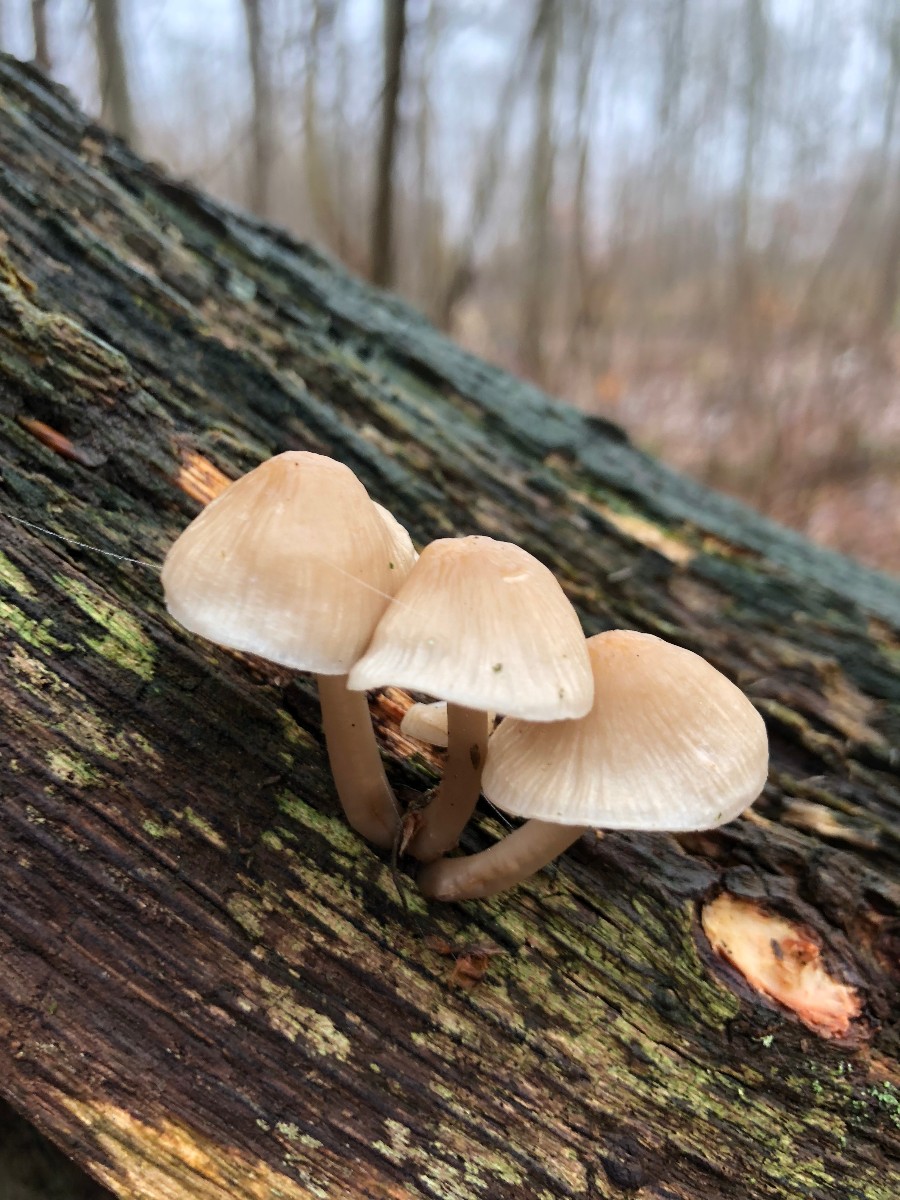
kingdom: Fungi
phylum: Basidiomycota
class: Agaricomycetes
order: Agaricales
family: Mycenaceae
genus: Mycena
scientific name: Mycena galericulata
